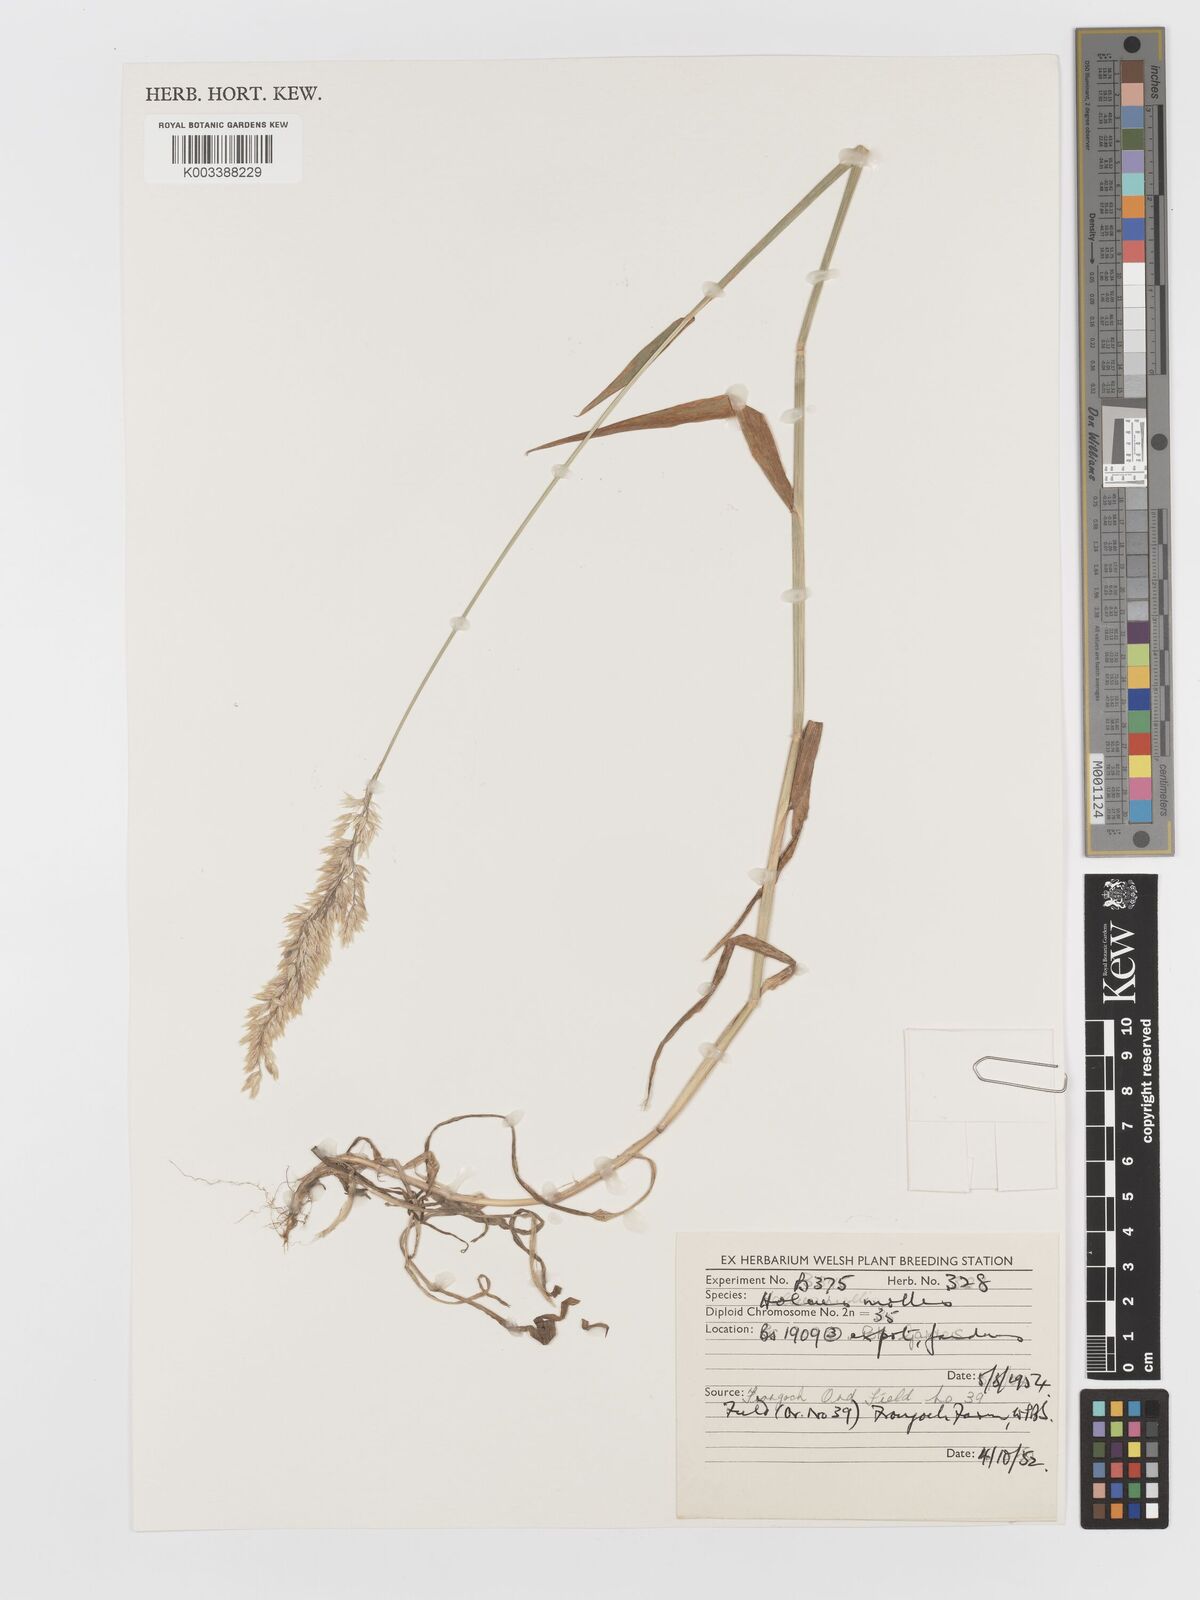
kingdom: Plantae
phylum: Tracheophyta
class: Liliopsida
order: Poales
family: Poaceae
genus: Holcus
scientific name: Holcus hierrensis
